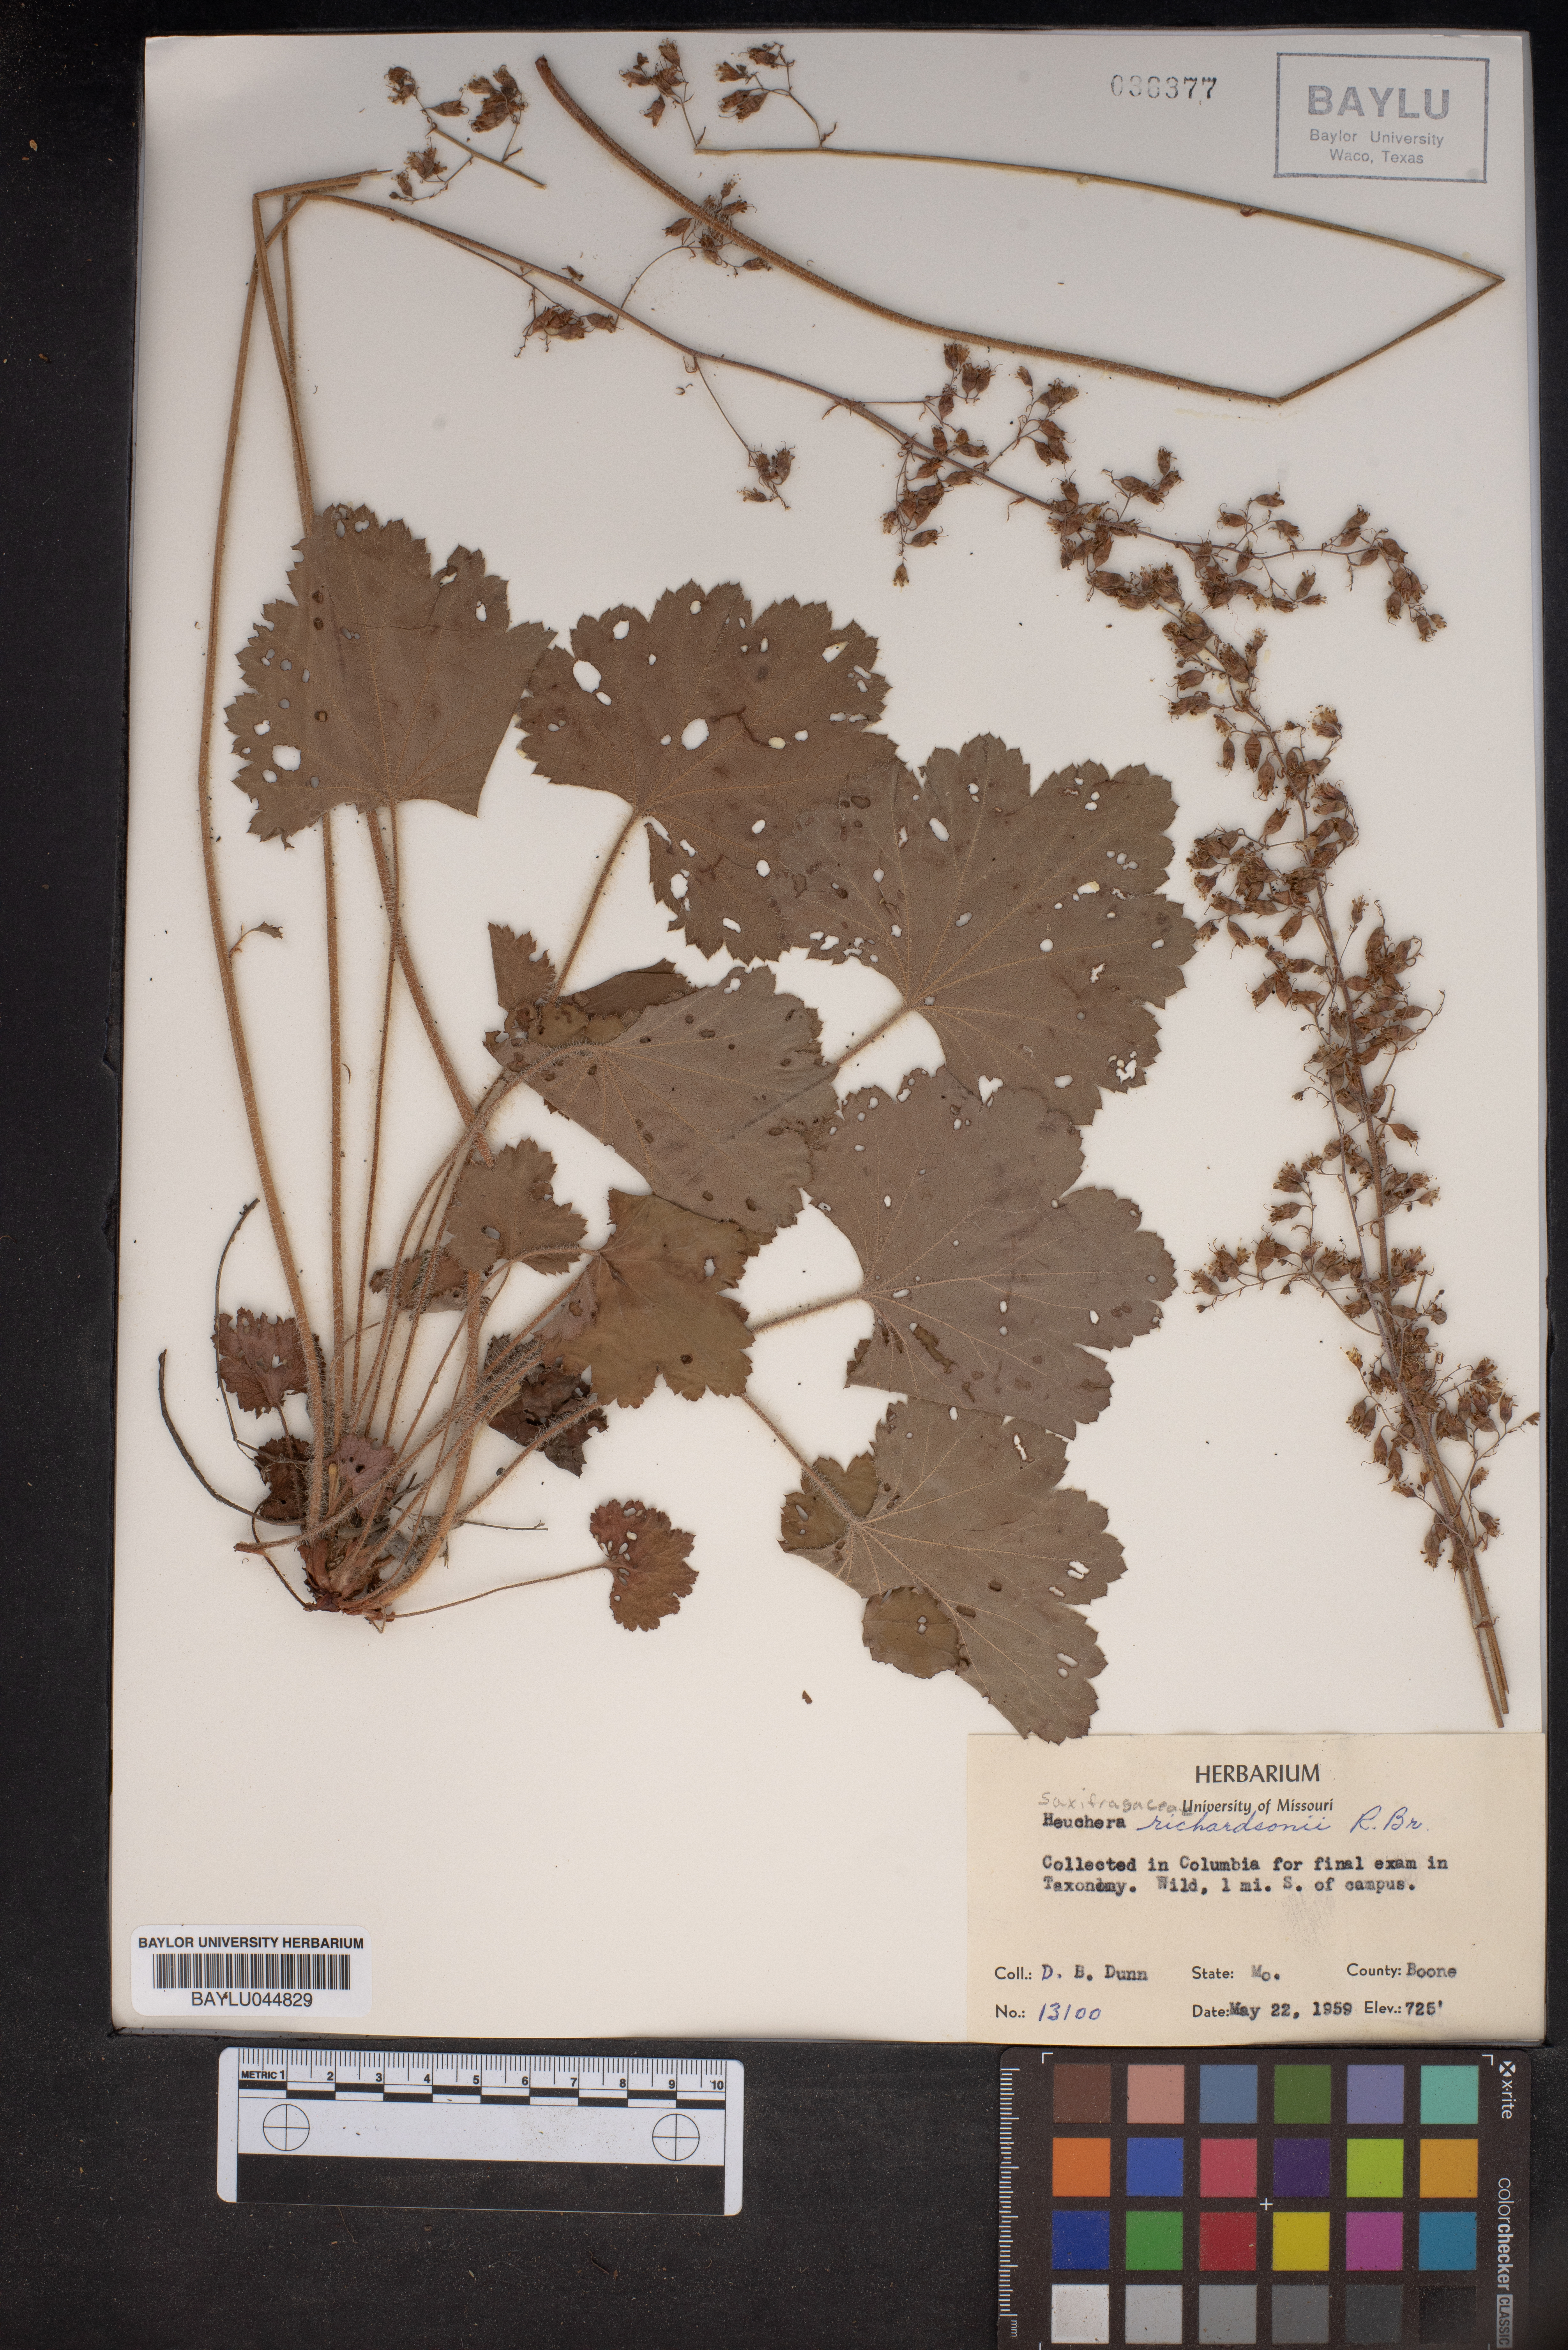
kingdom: Plantae
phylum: Tracheophyta
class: Magnoliopsida
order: Saxifragales
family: Saxifragaceae
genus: Heuchera
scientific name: Heuchera richardsonii
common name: Richardson's alumroot
